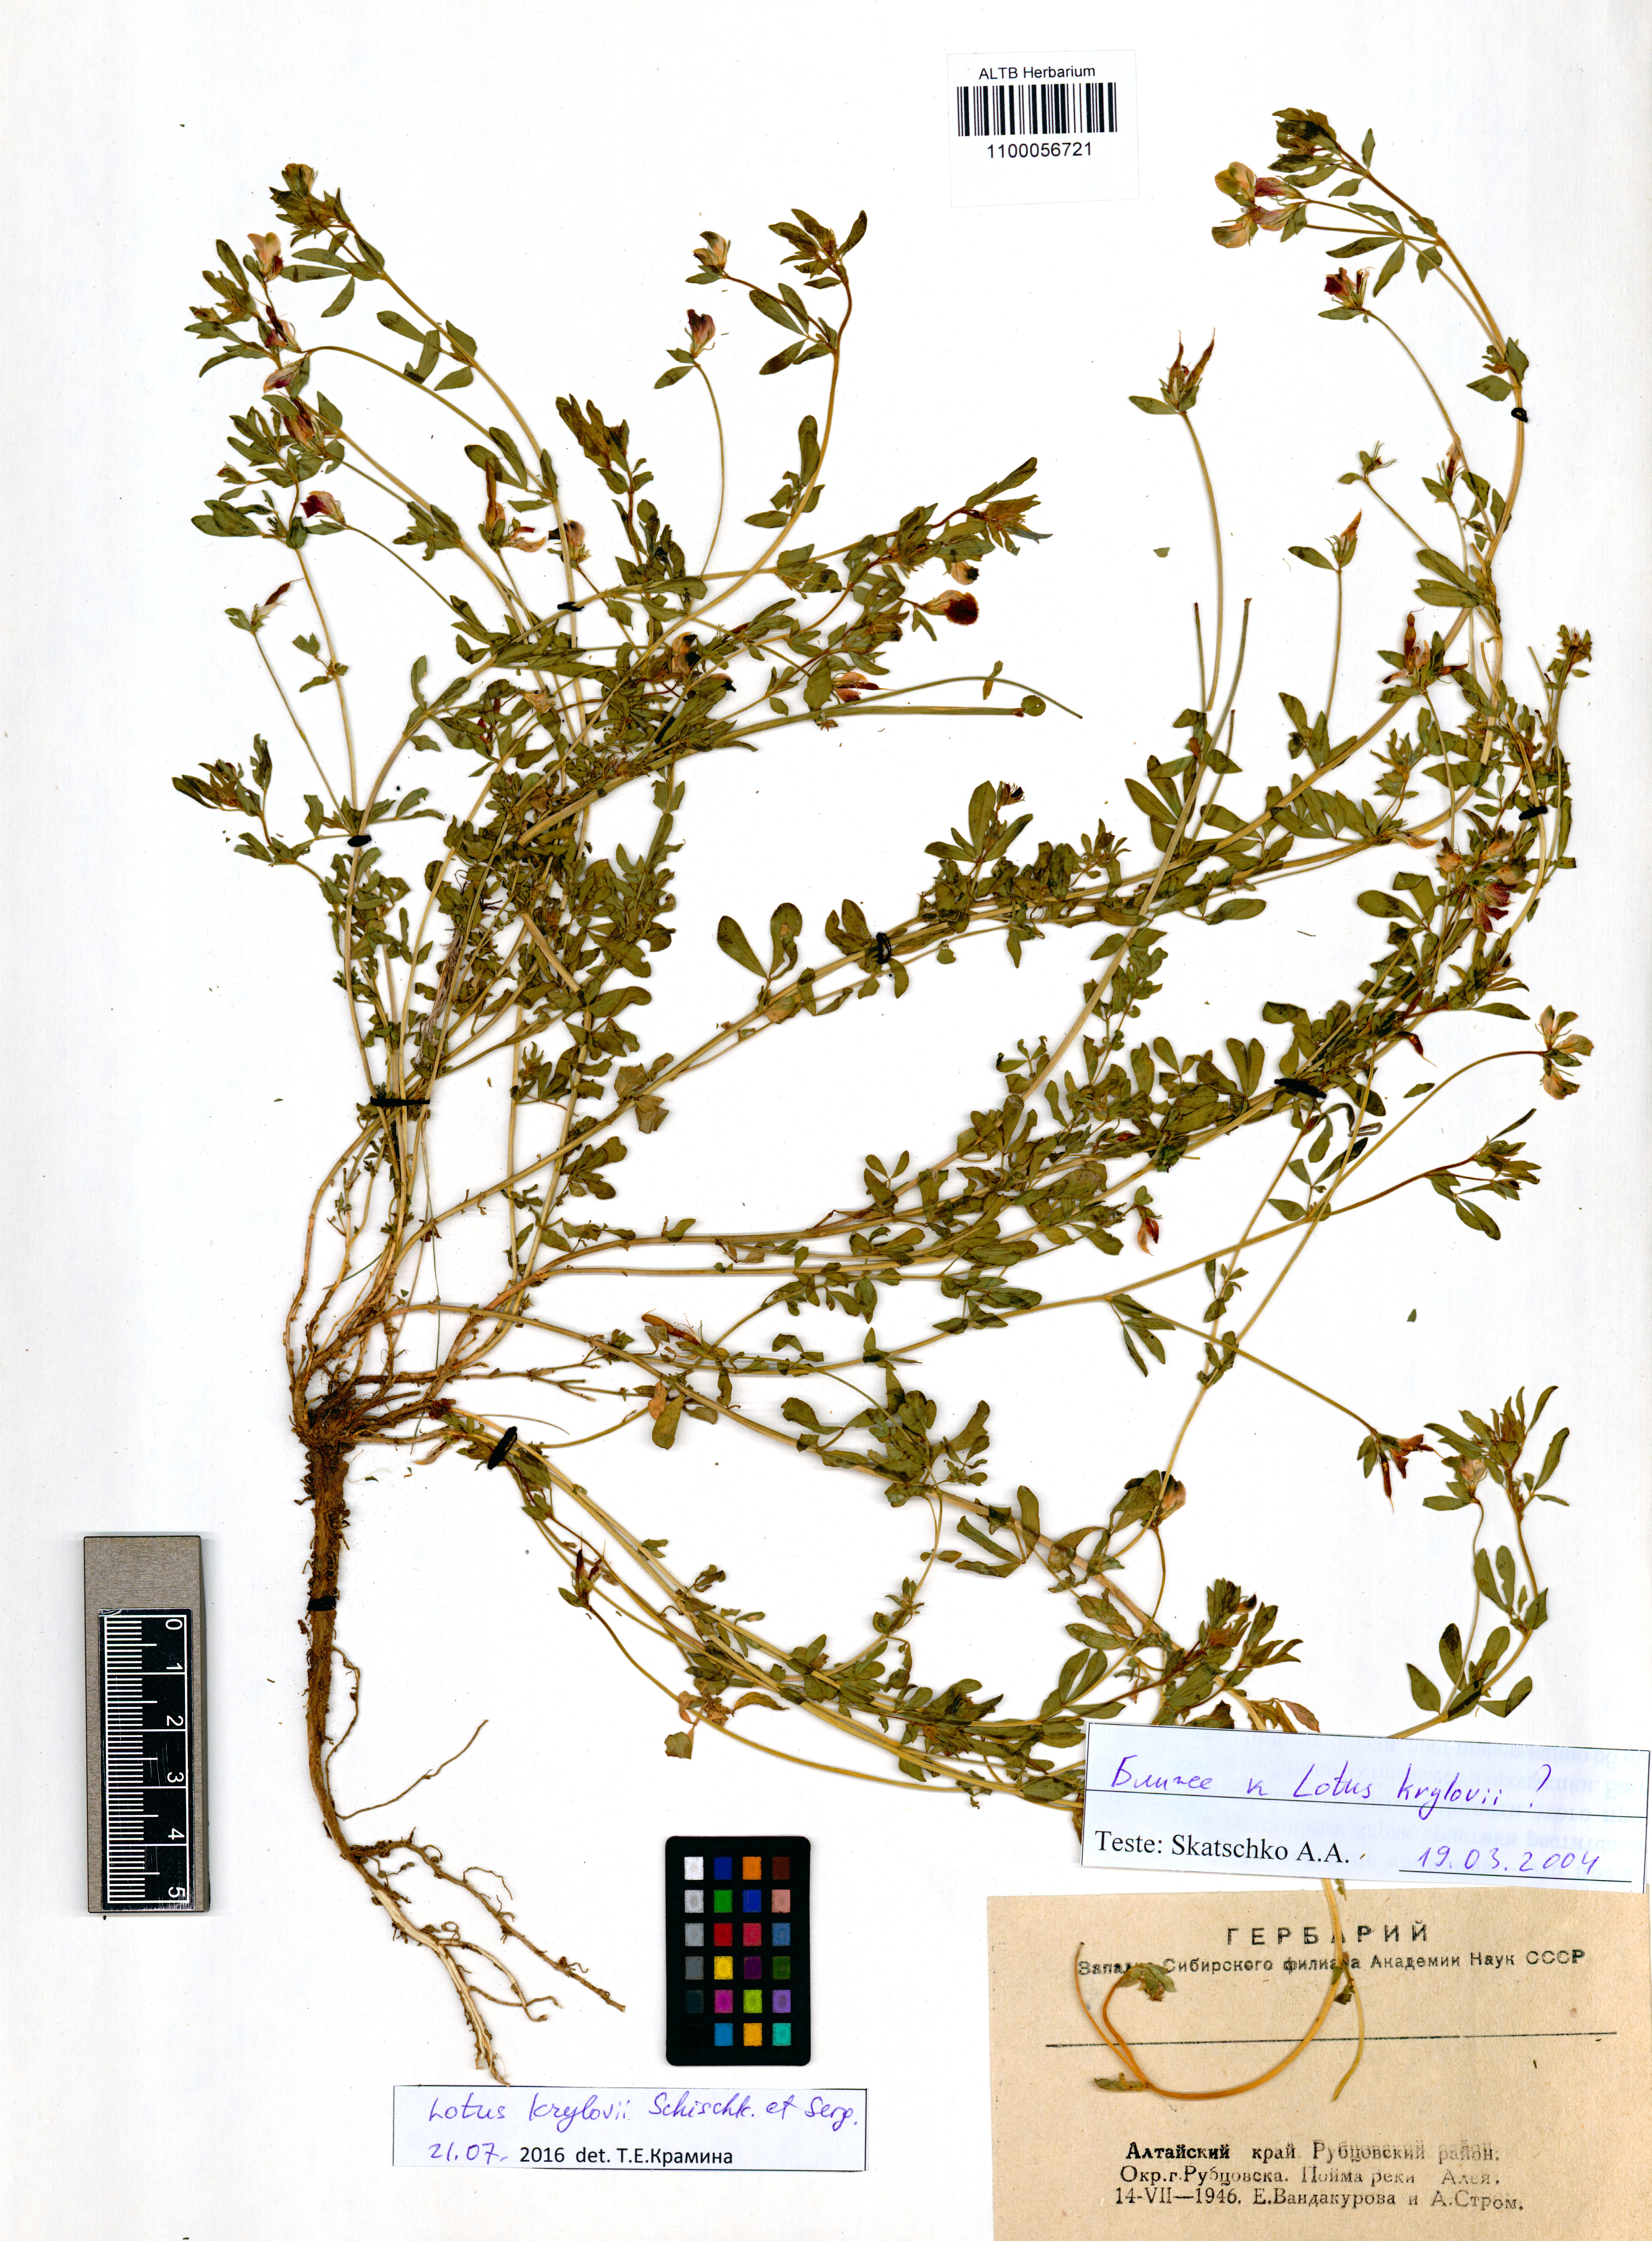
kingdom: Plantae
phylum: Tracheophyta
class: Magnoliopsida
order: Fabales
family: Fabaceae
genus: Lotus
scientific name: Lotus krylovii
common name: Krylov's bird's-foot trefoil
